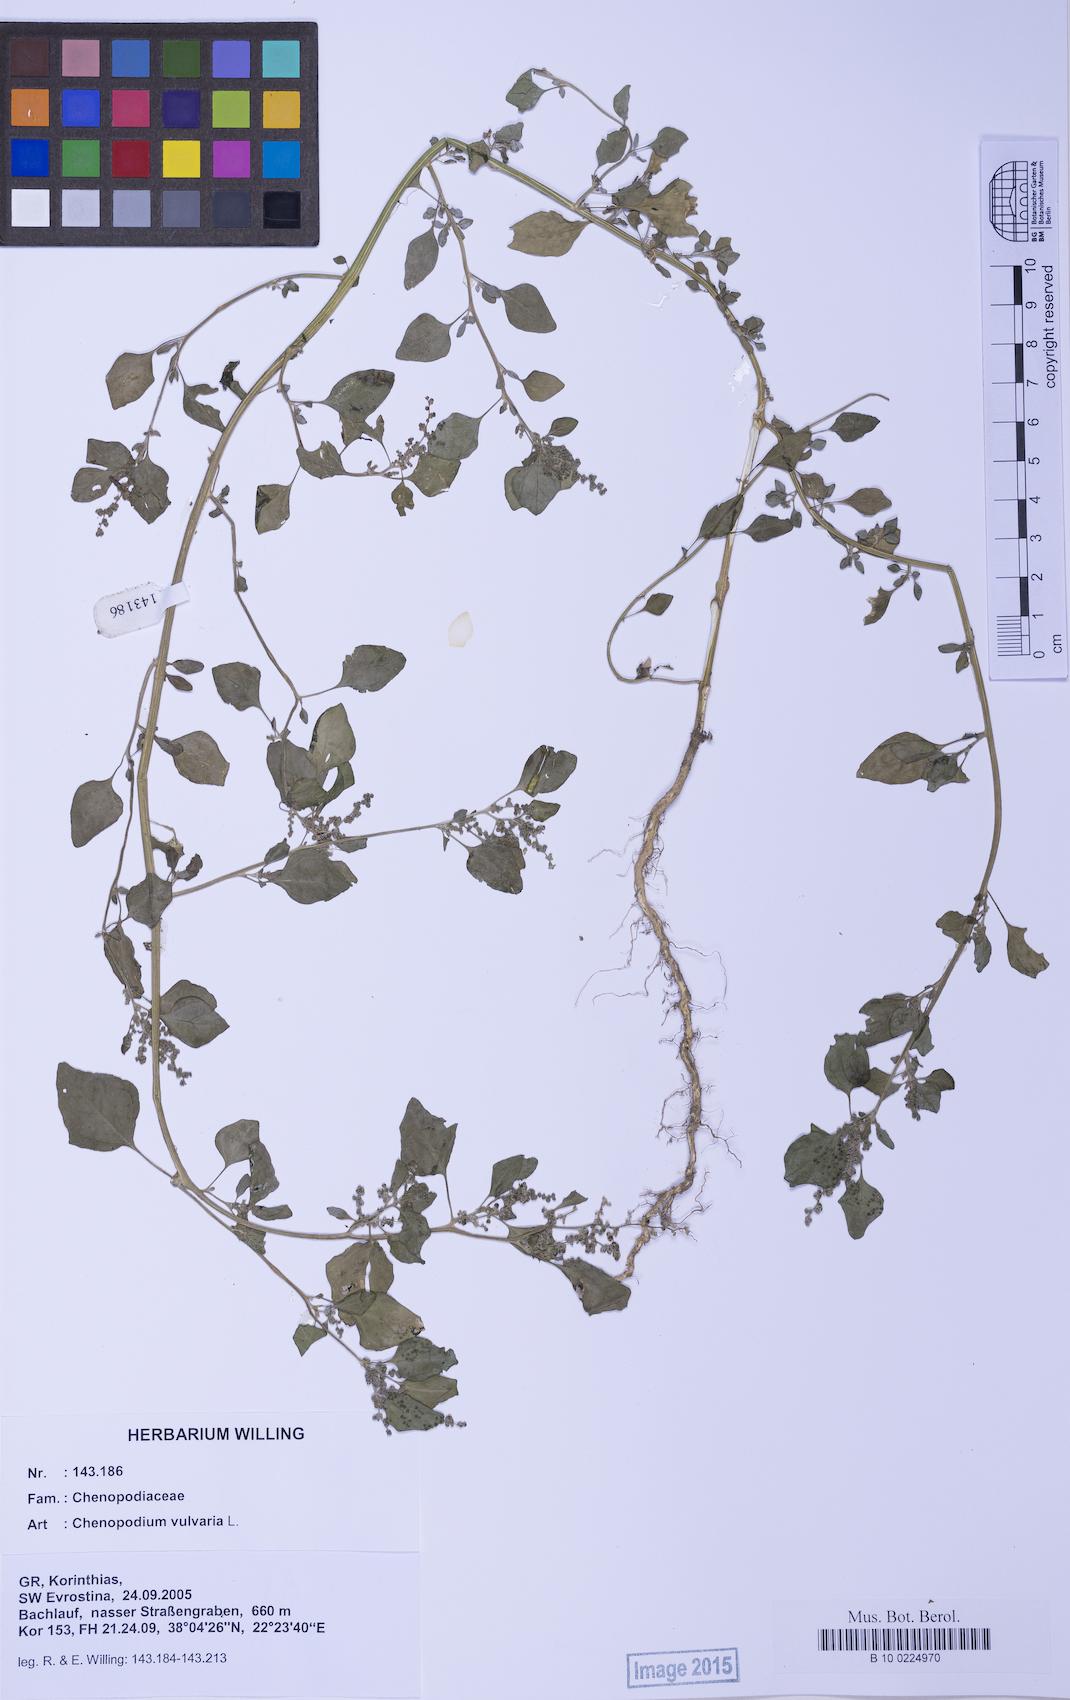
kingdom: Plantae
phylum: Tracheophyta
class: Magnoliopsida
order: Caryophyllales
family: Amaranthaceae
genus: Chenopodium
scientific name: Chenopodium vulvaria
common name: Stinking goosefoot
